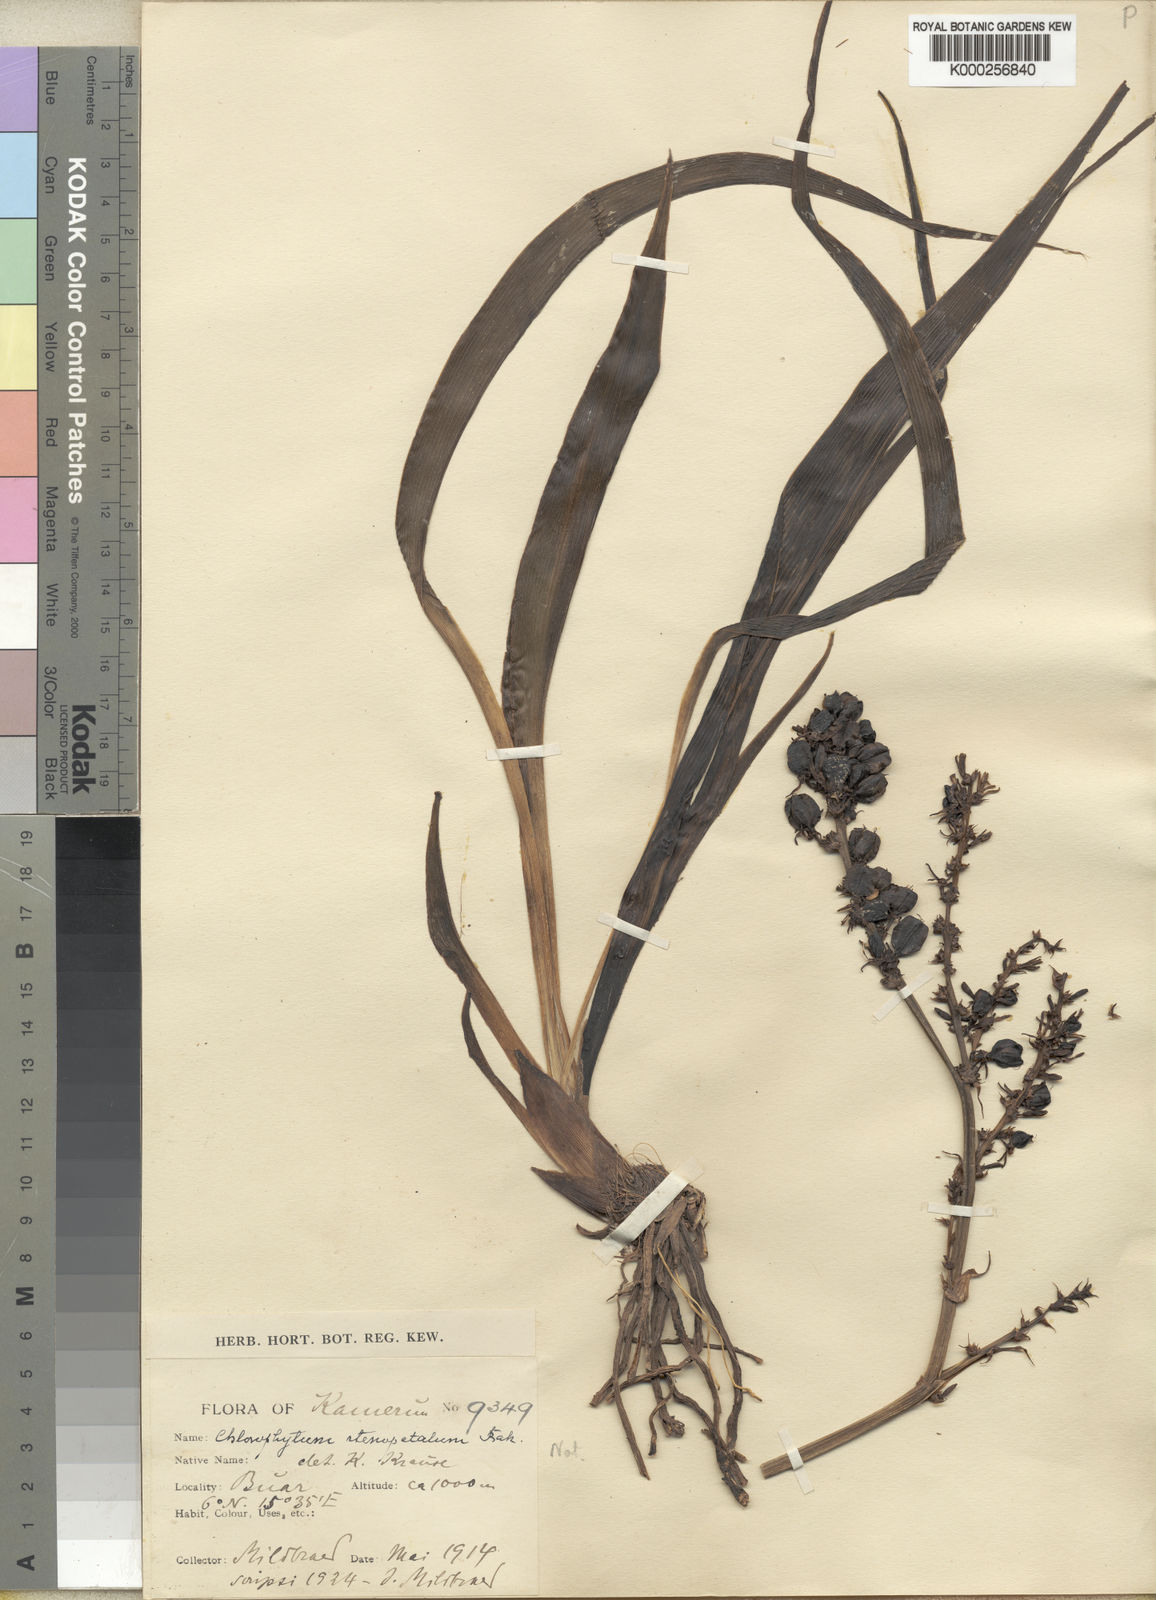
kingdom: Plantae
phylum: Tracheophyta
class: Liliopsida
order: Asparagales
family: Asparagaceae
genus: Chlorophytum
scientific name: Chlorophytum blepharophyllum
